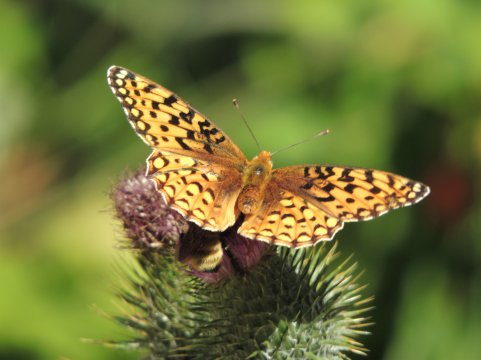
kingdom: Animalia
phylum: Arthropoda
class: Insecta
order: Lepidoptera
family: Nymphalidae
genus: Speyeria
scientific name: Speyeria coronis
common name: Coronis Fritillary
